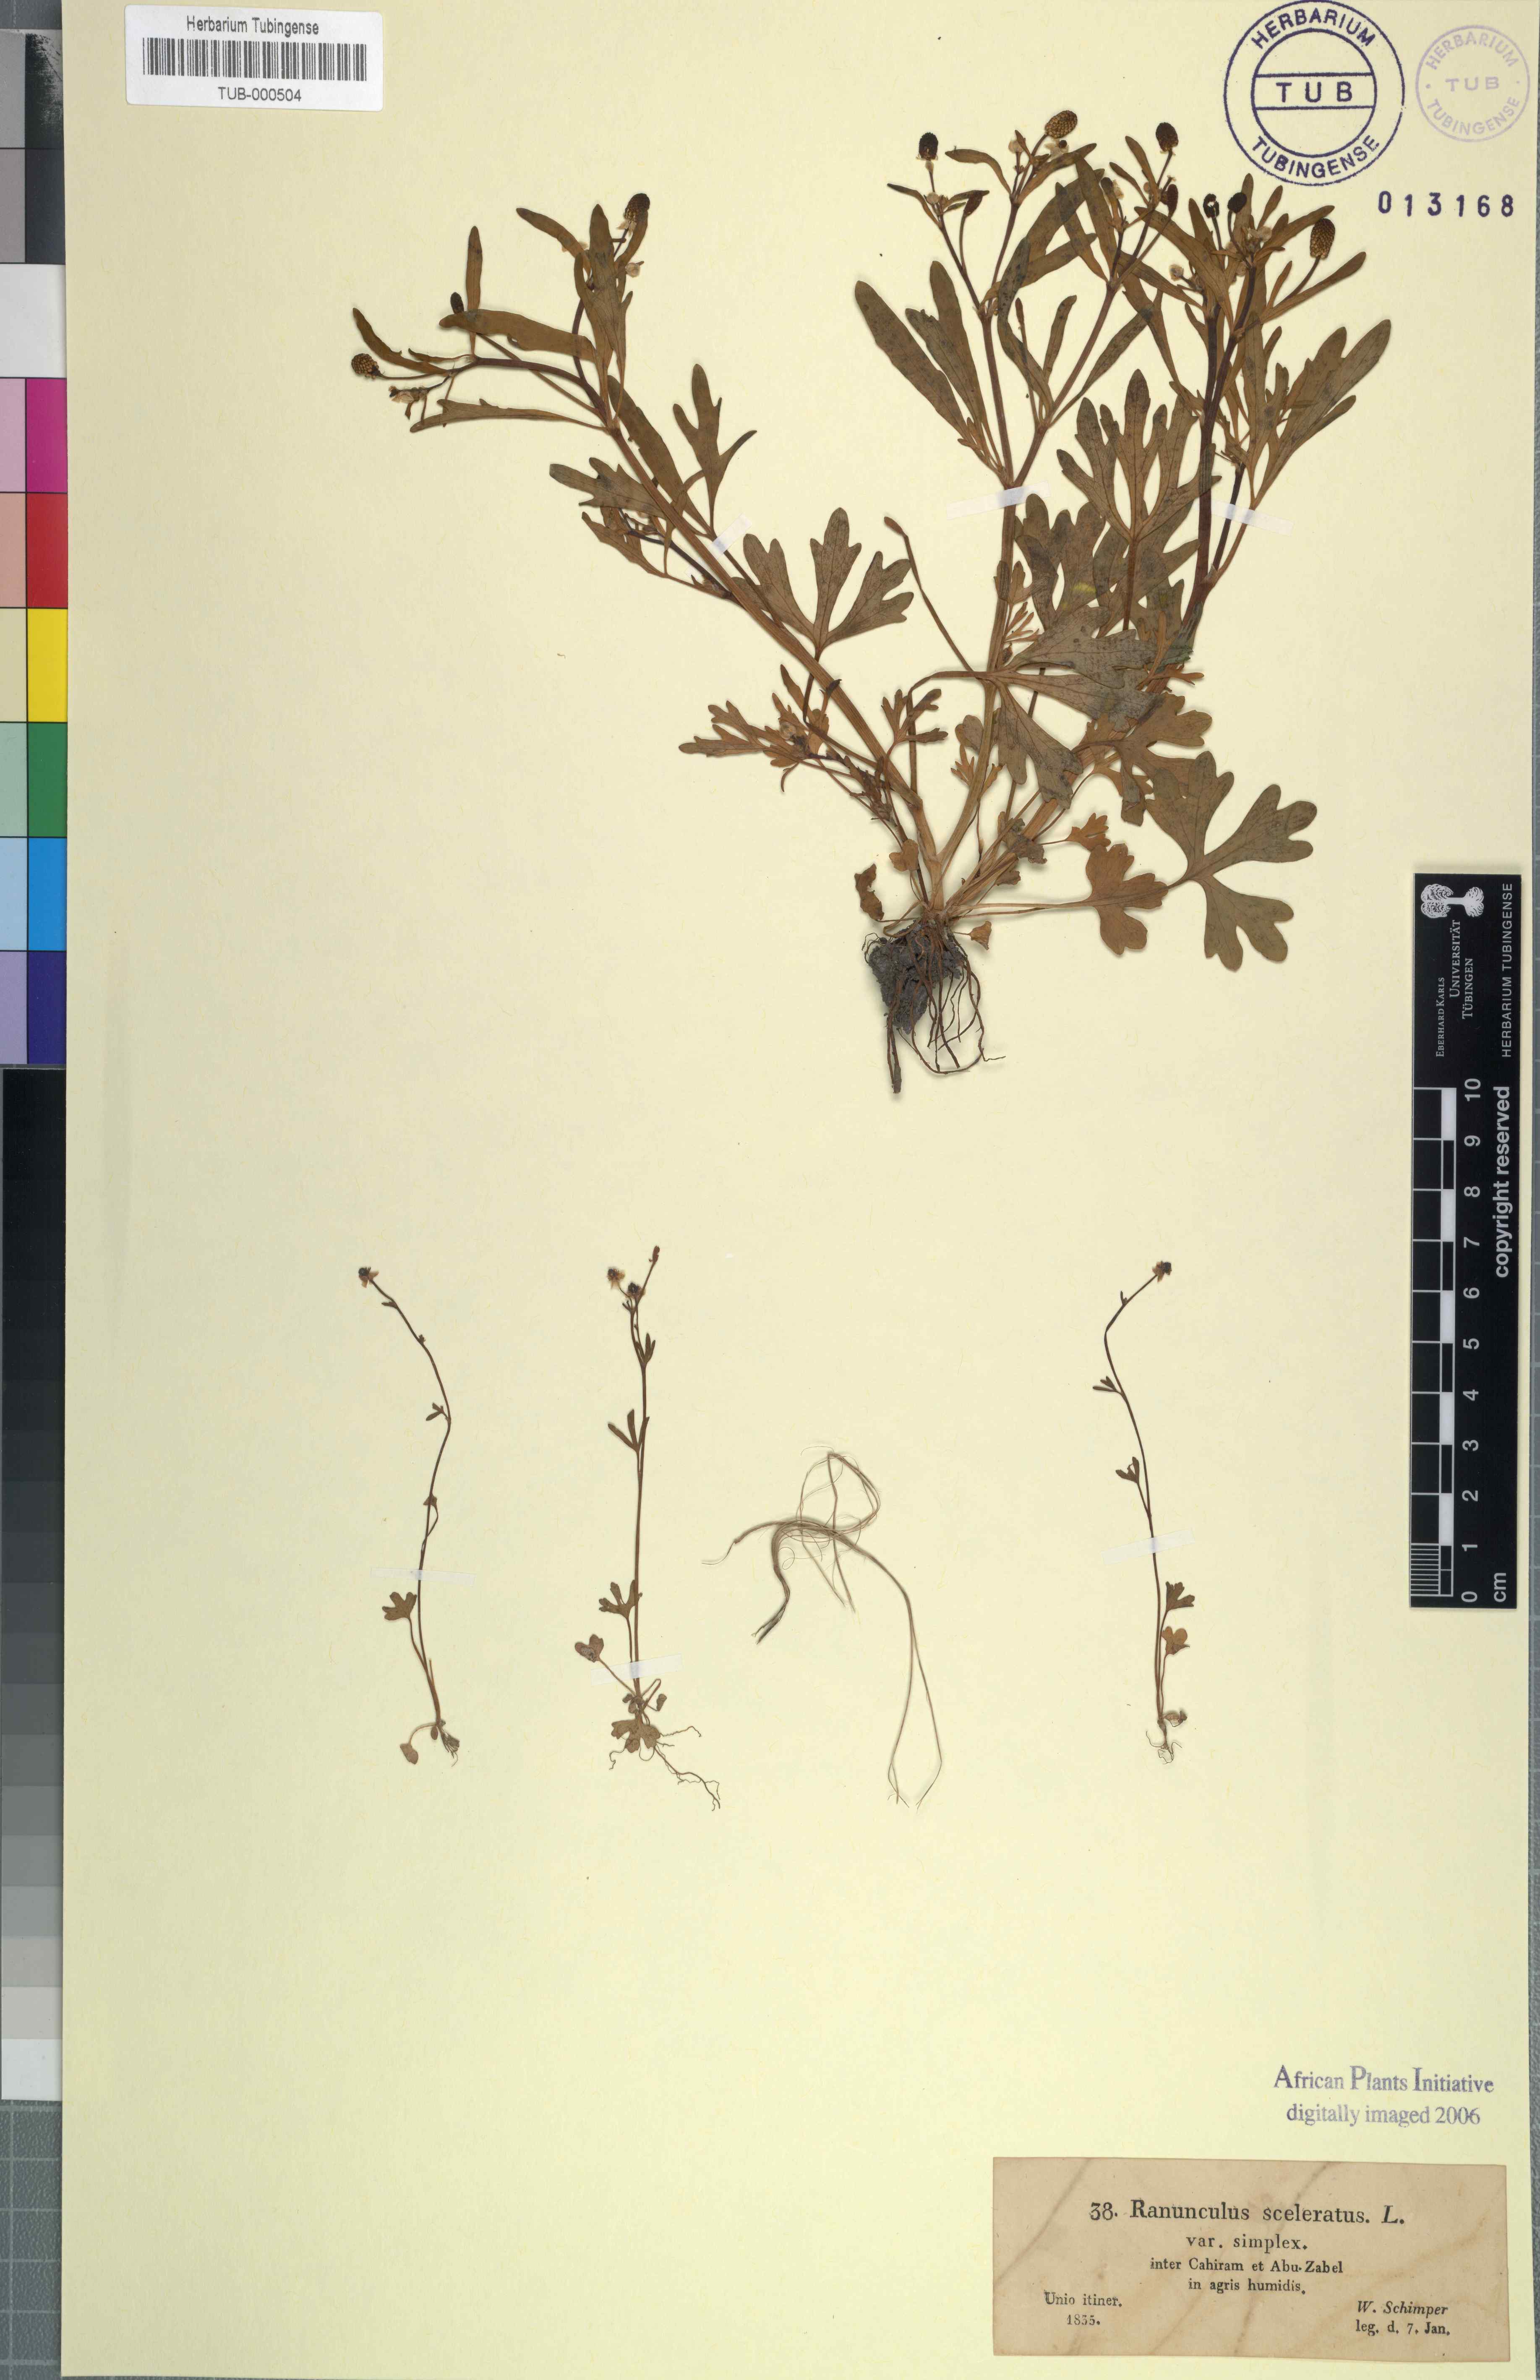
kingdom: Plantae
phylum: Tracheophyta
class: Magnoliopsida
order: Ranunculales
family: Ranunculaceae
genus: Ranunculus
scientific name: Ranunculus sceleratus
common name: Celery-leaved buttercup
